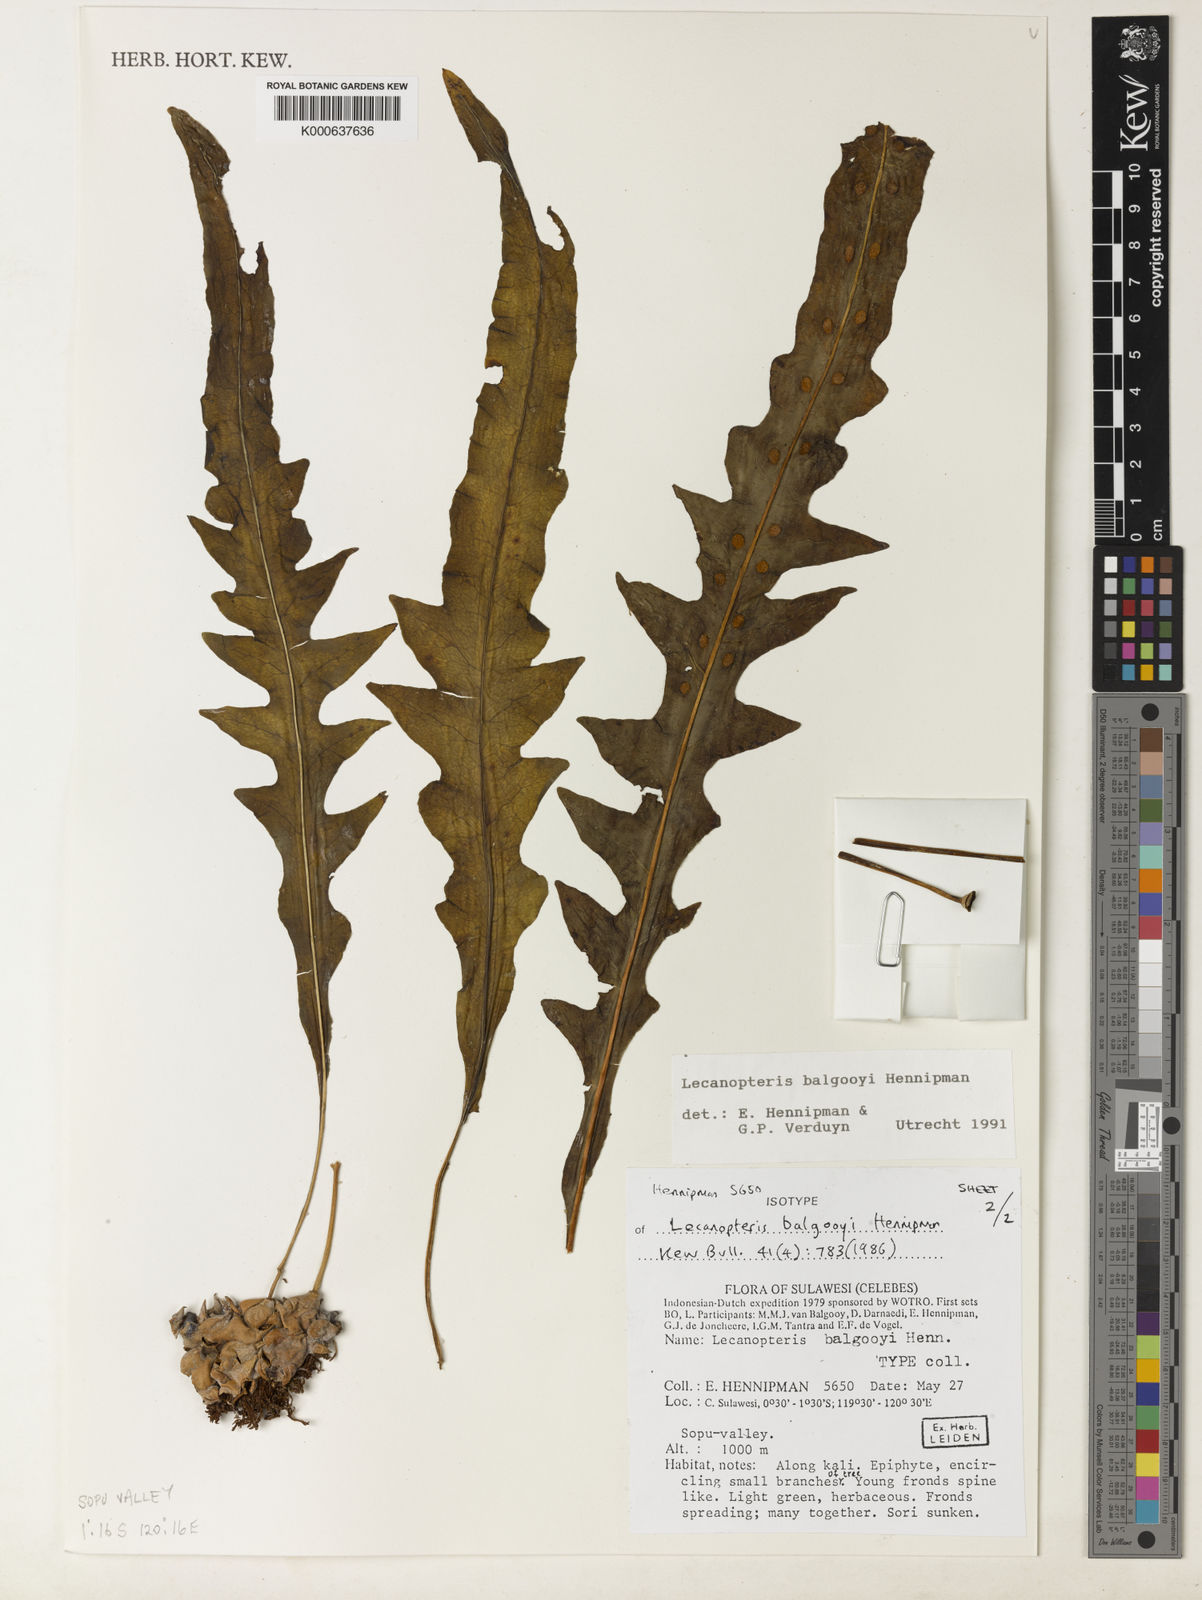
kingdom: Plantae
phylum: Tracheophyta
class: Polypodiopsida
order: Polypodiales
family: Polypodiaceae
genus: Lecanopteris
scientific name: Lecanopteris balgooyi
